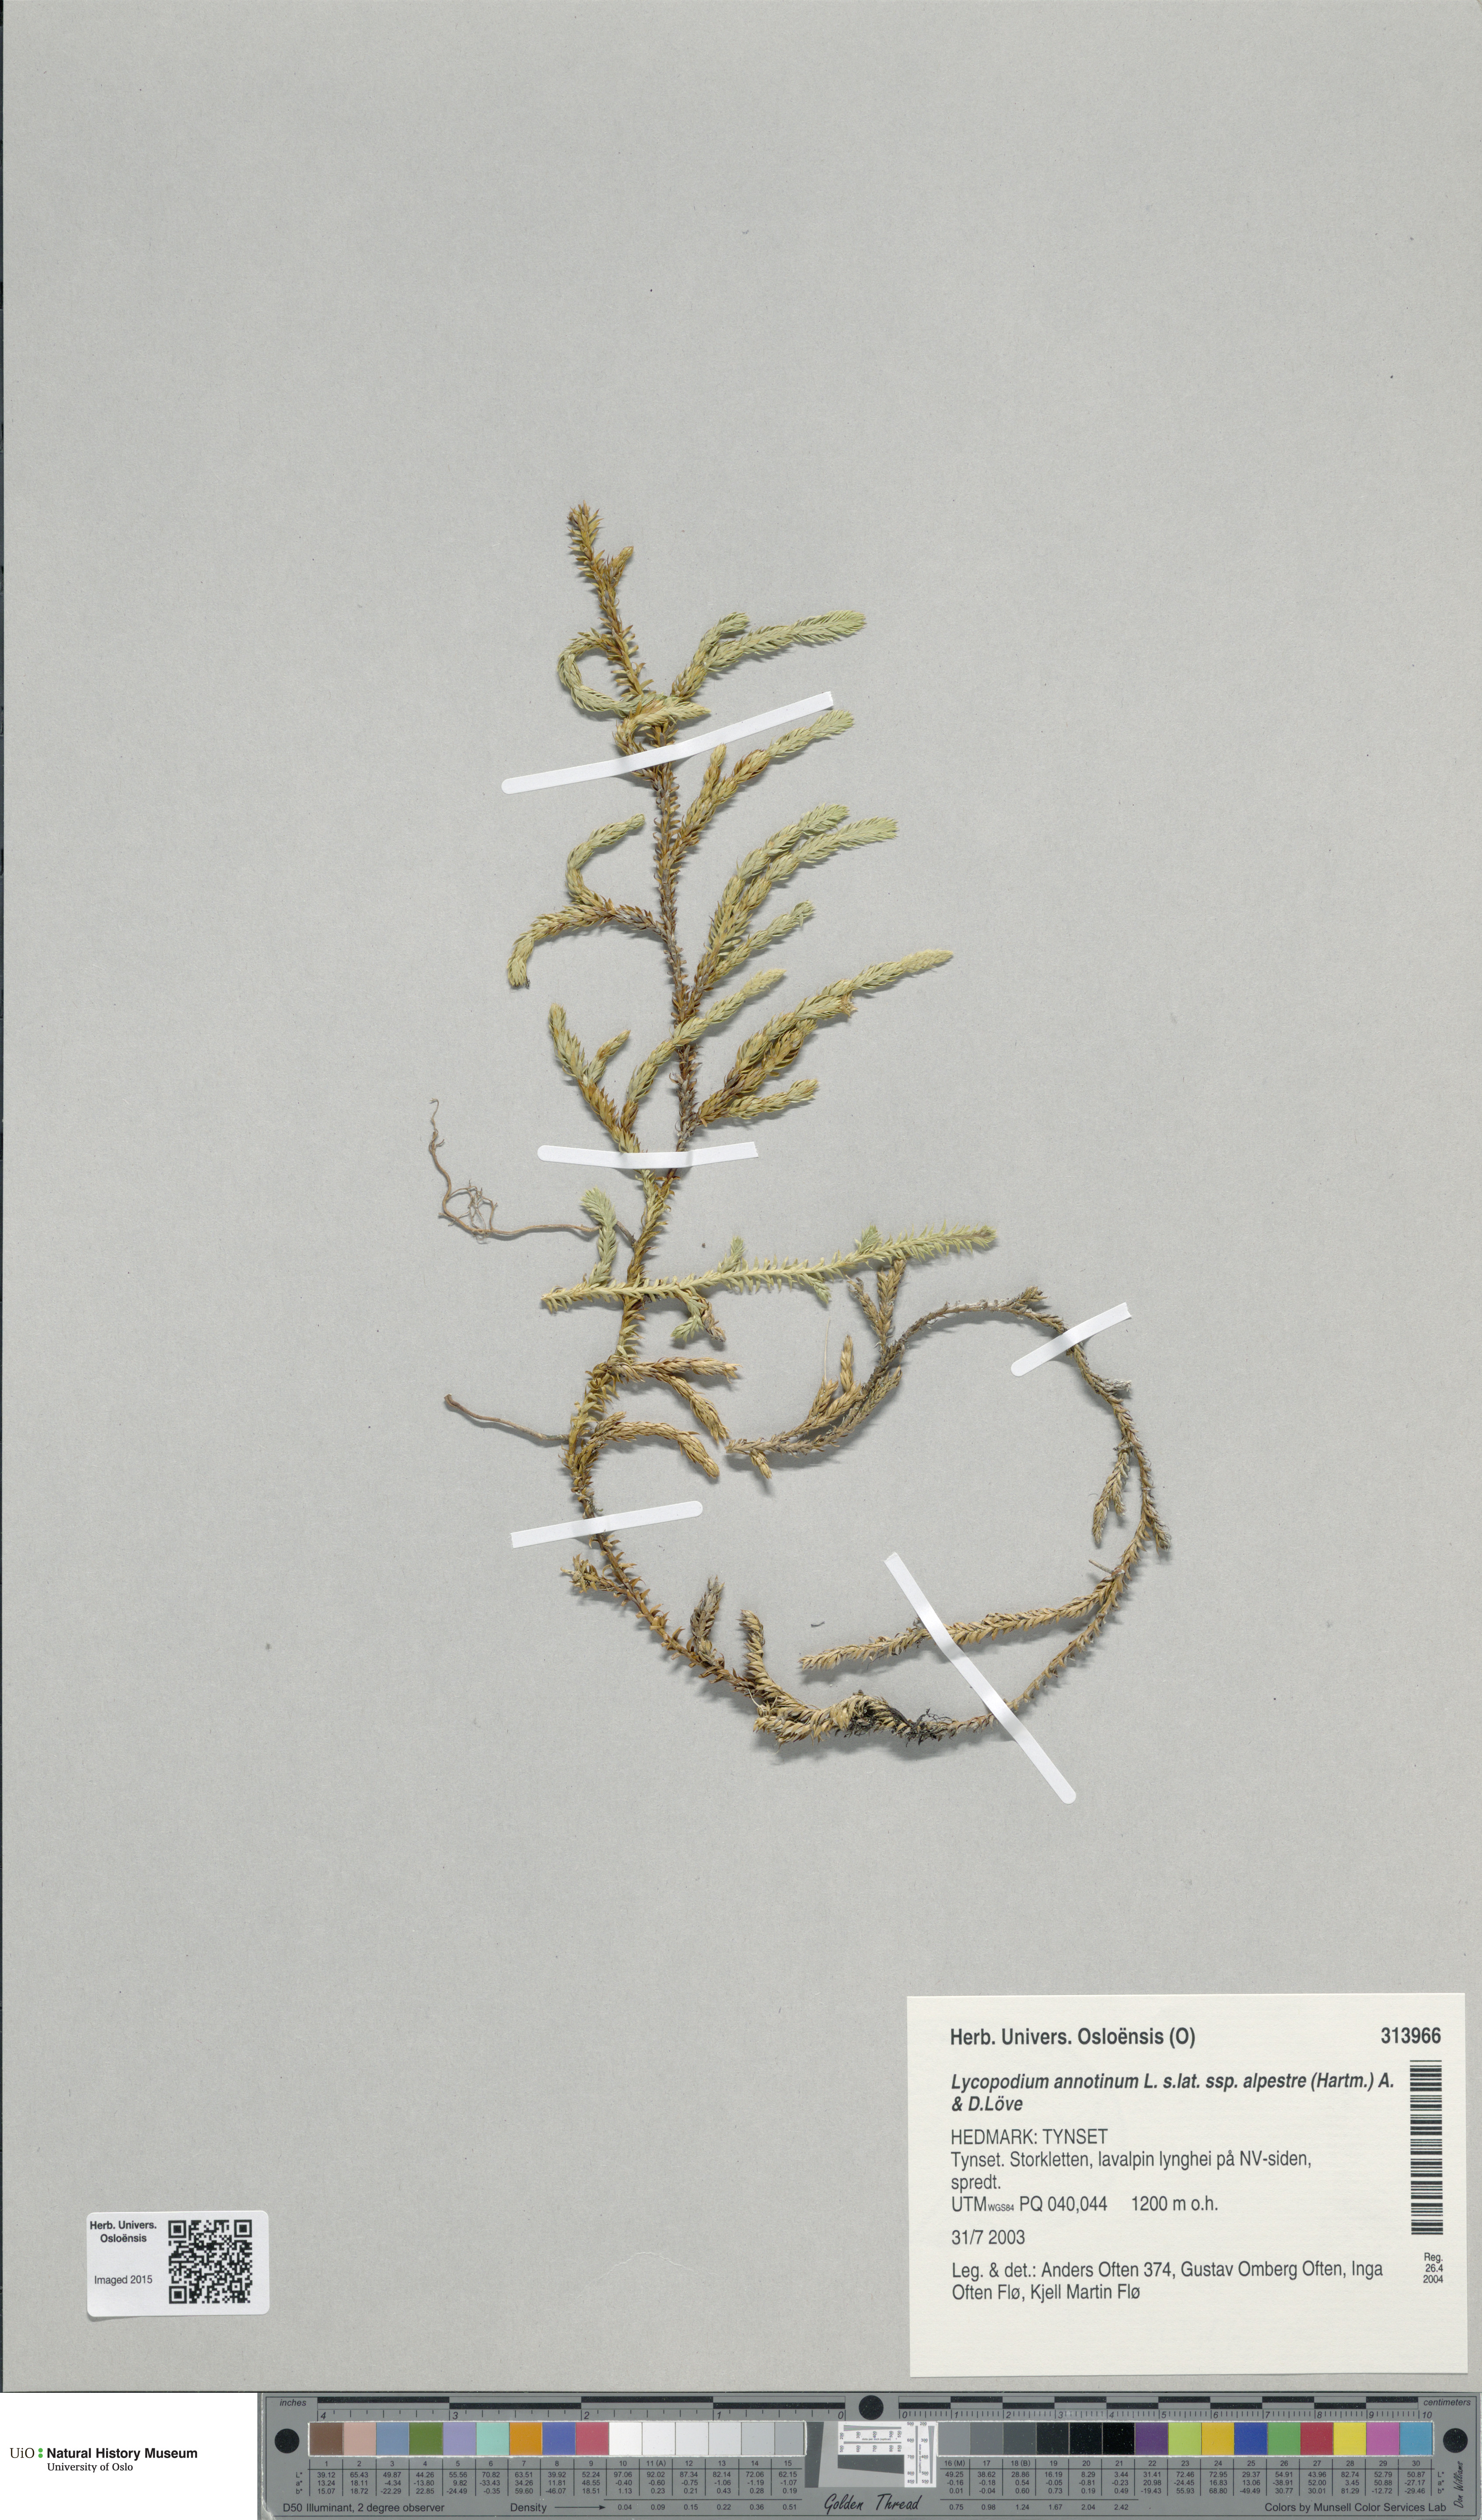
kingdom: Plantae
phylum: Tracheophyta
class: Lycopodiopsida
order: Lycopodiales
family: Lycopodiaceae
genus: Spinulum
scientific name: Spinulum annotinum
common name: Interrupted club-moss
